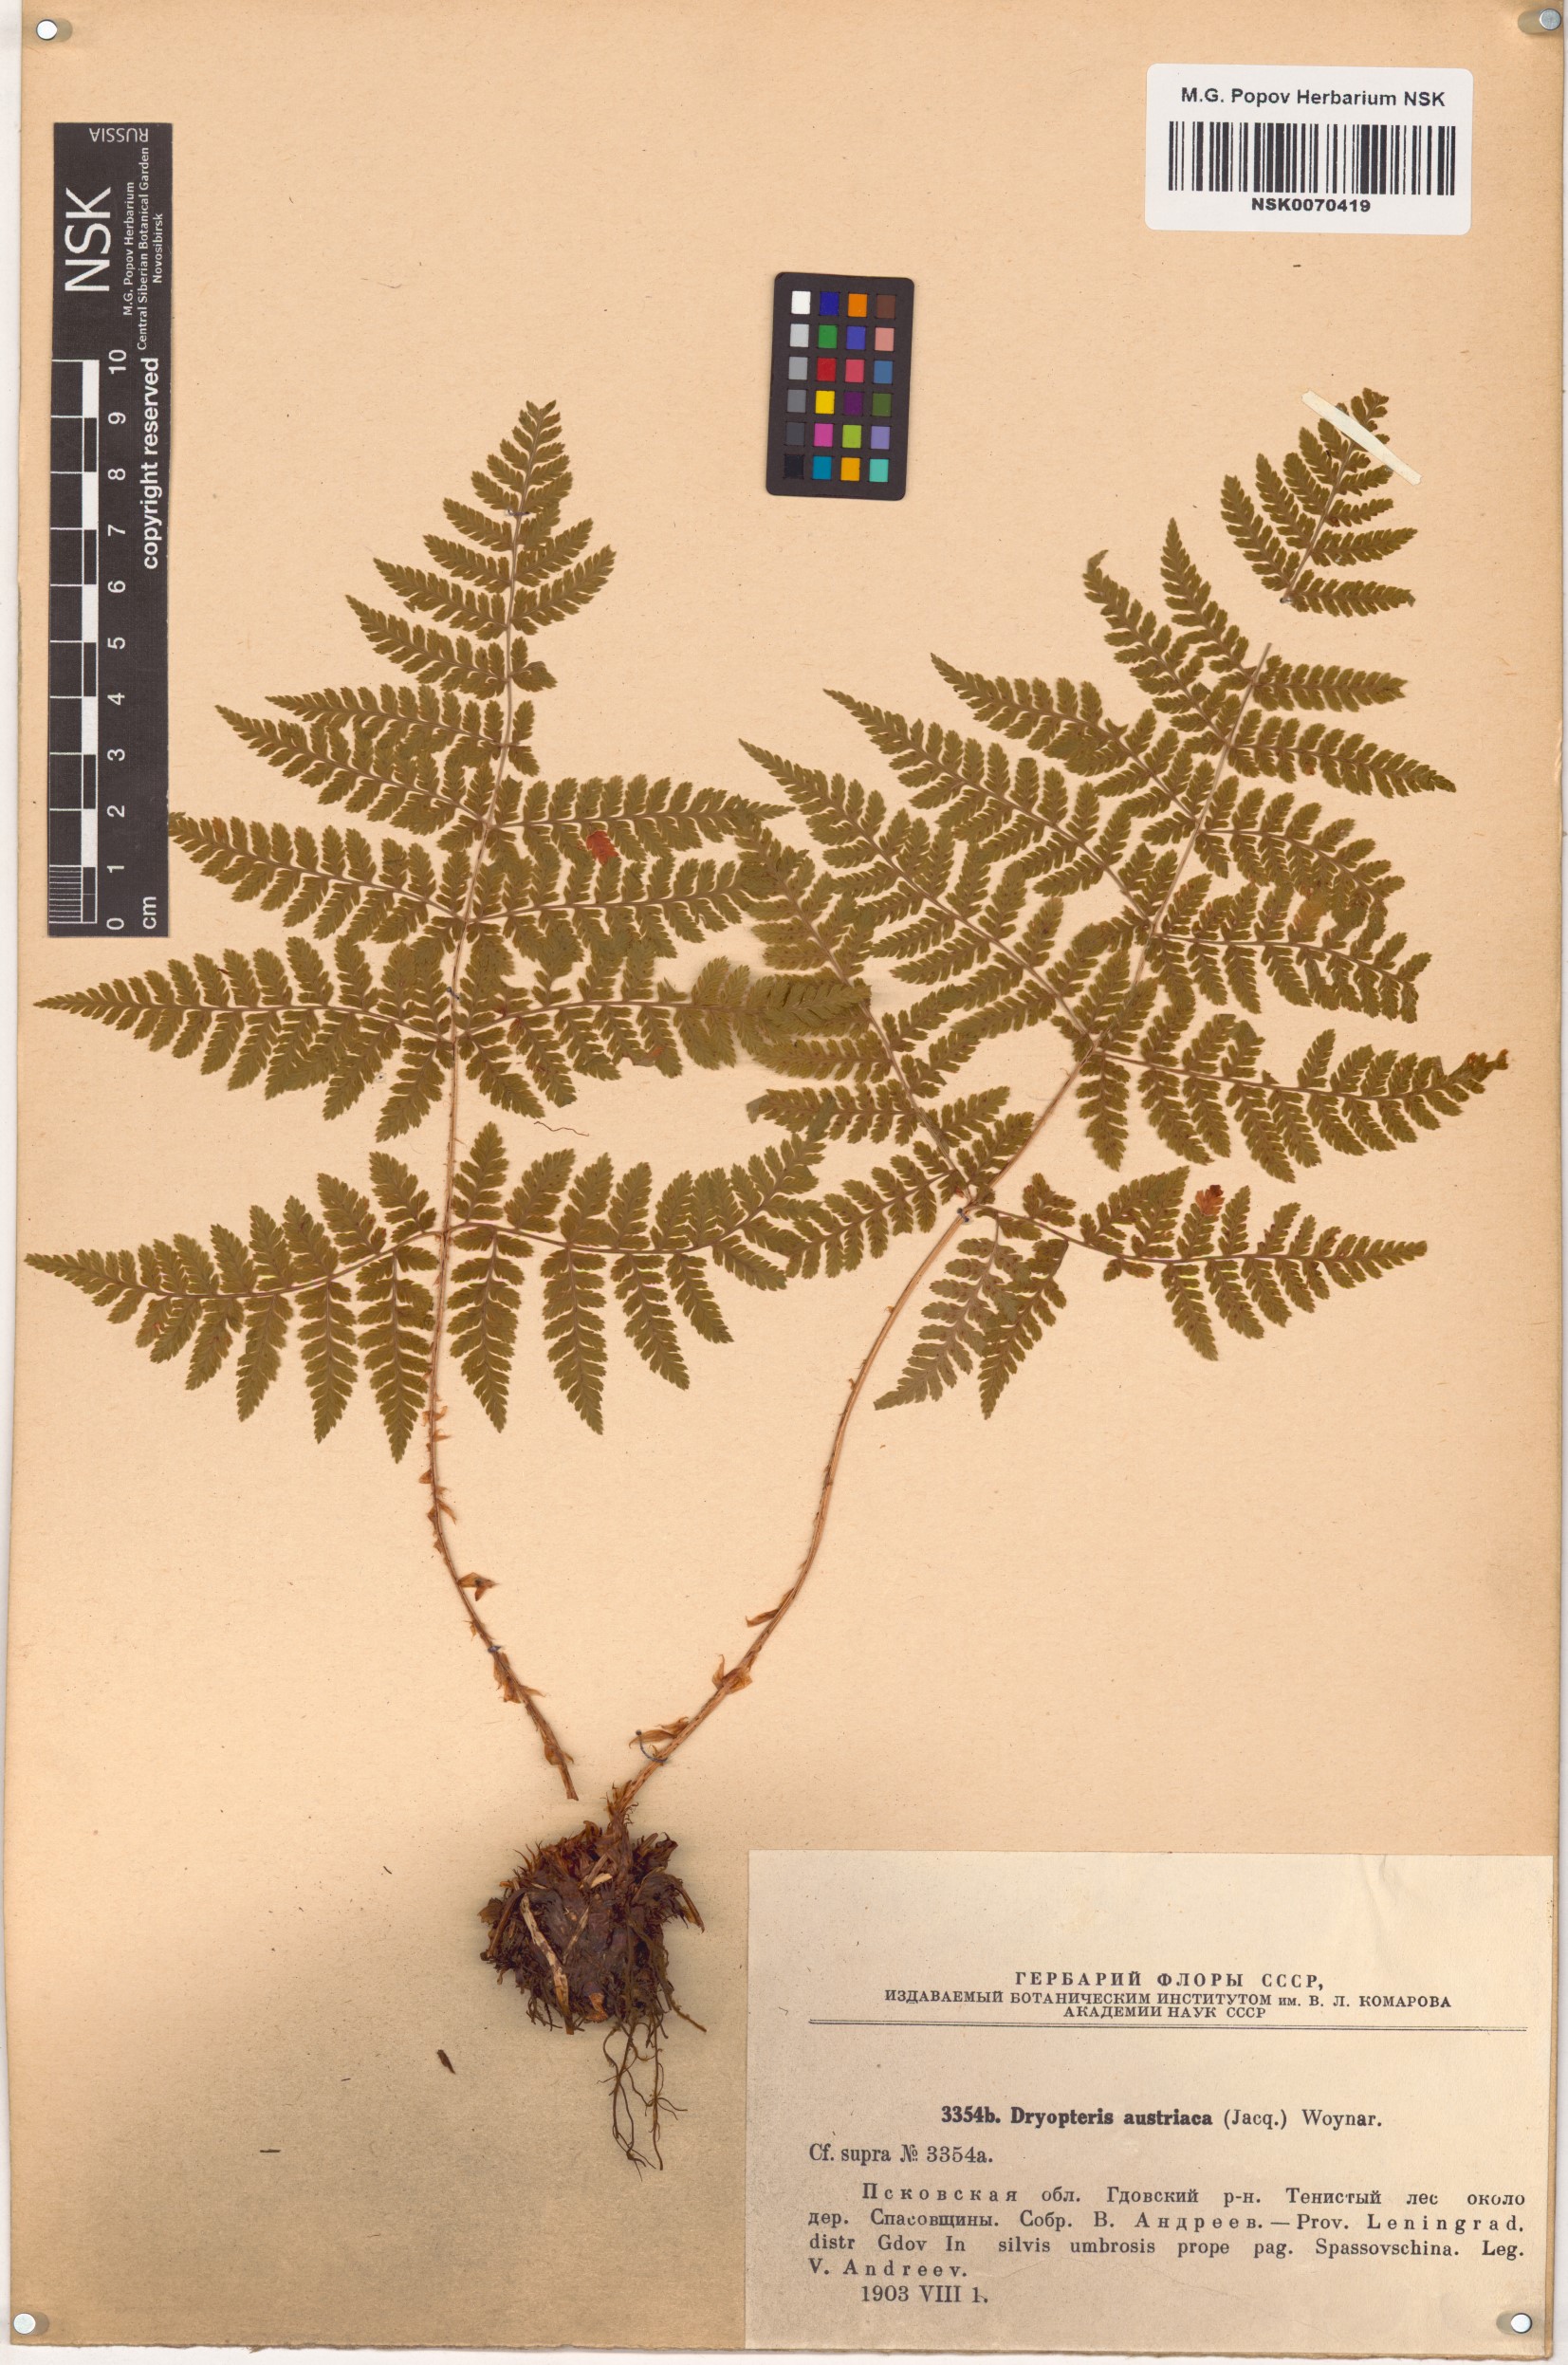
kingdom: Plantae
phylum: Tracheophyta
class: Polypodiopsida
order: Polypodiales
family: Dryopteridaceae
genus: Dryopteris
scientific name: Dryopteris dilatata
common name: Broad buckler-fern
